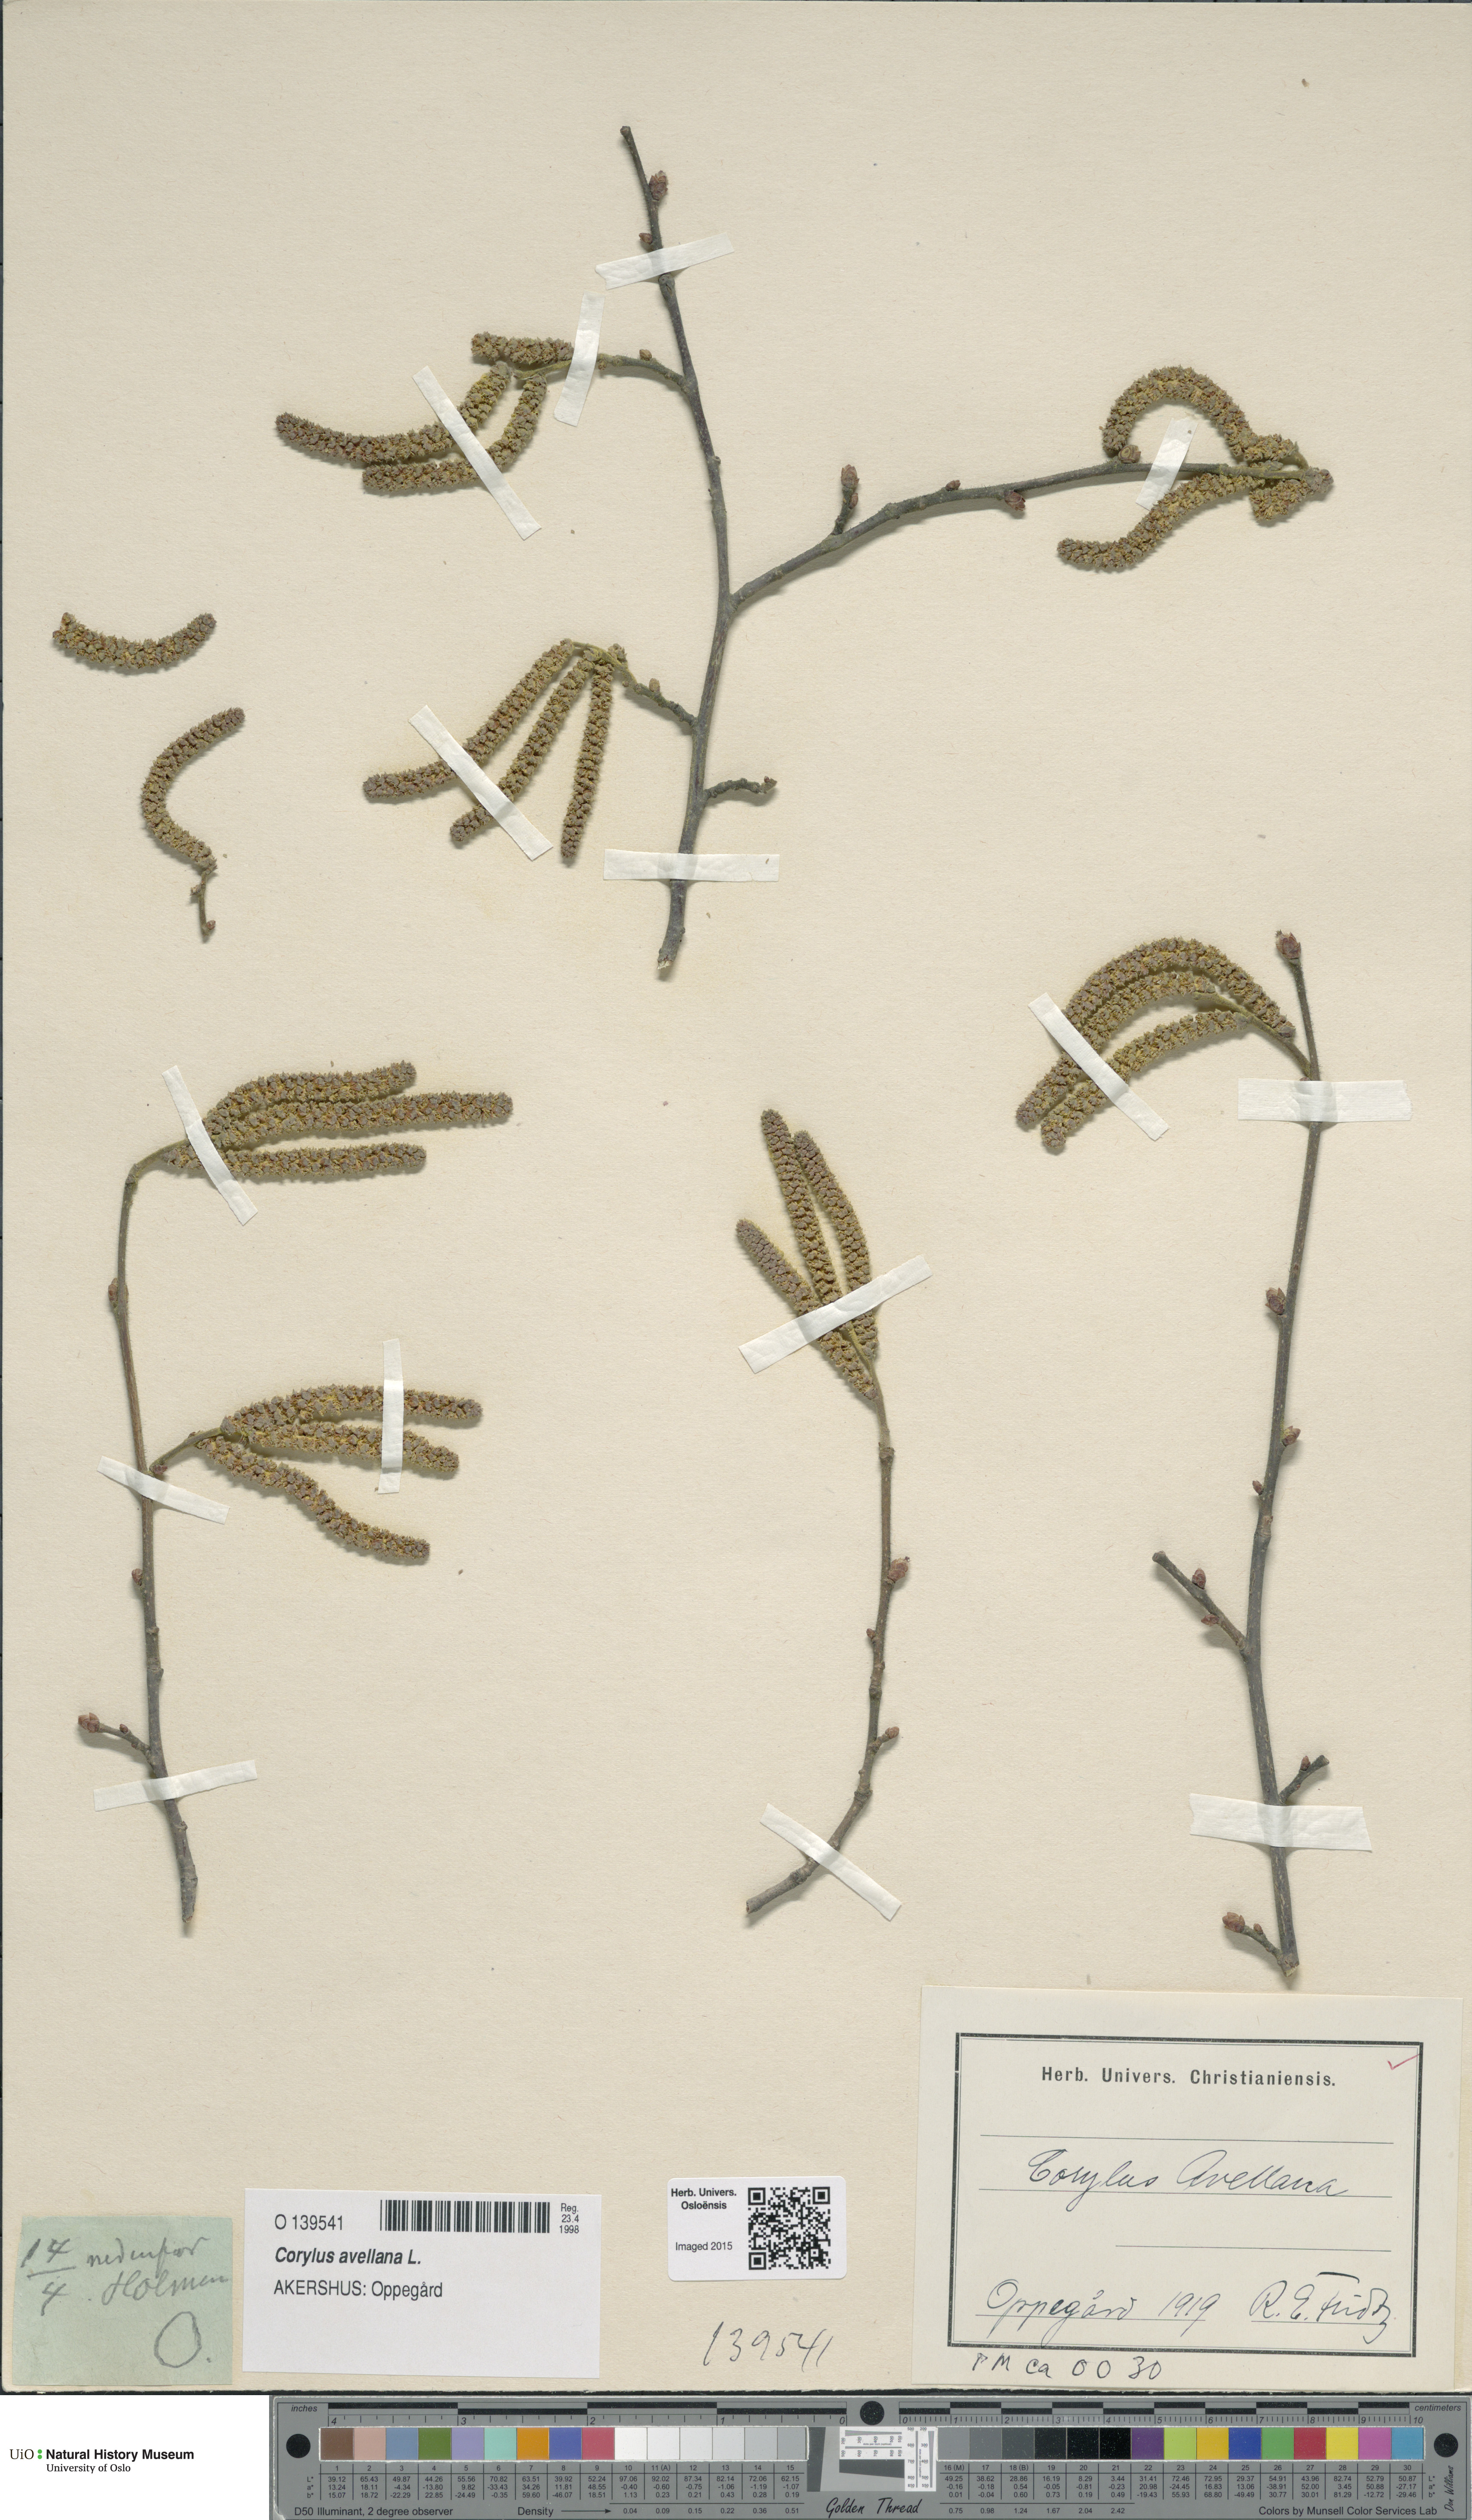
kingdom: Plantae
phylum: Tracheophyta
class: Magnoliopsida
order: Fagales
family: Betulaceae
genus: Corylus
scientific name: Corylus avellana
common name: European hazel
